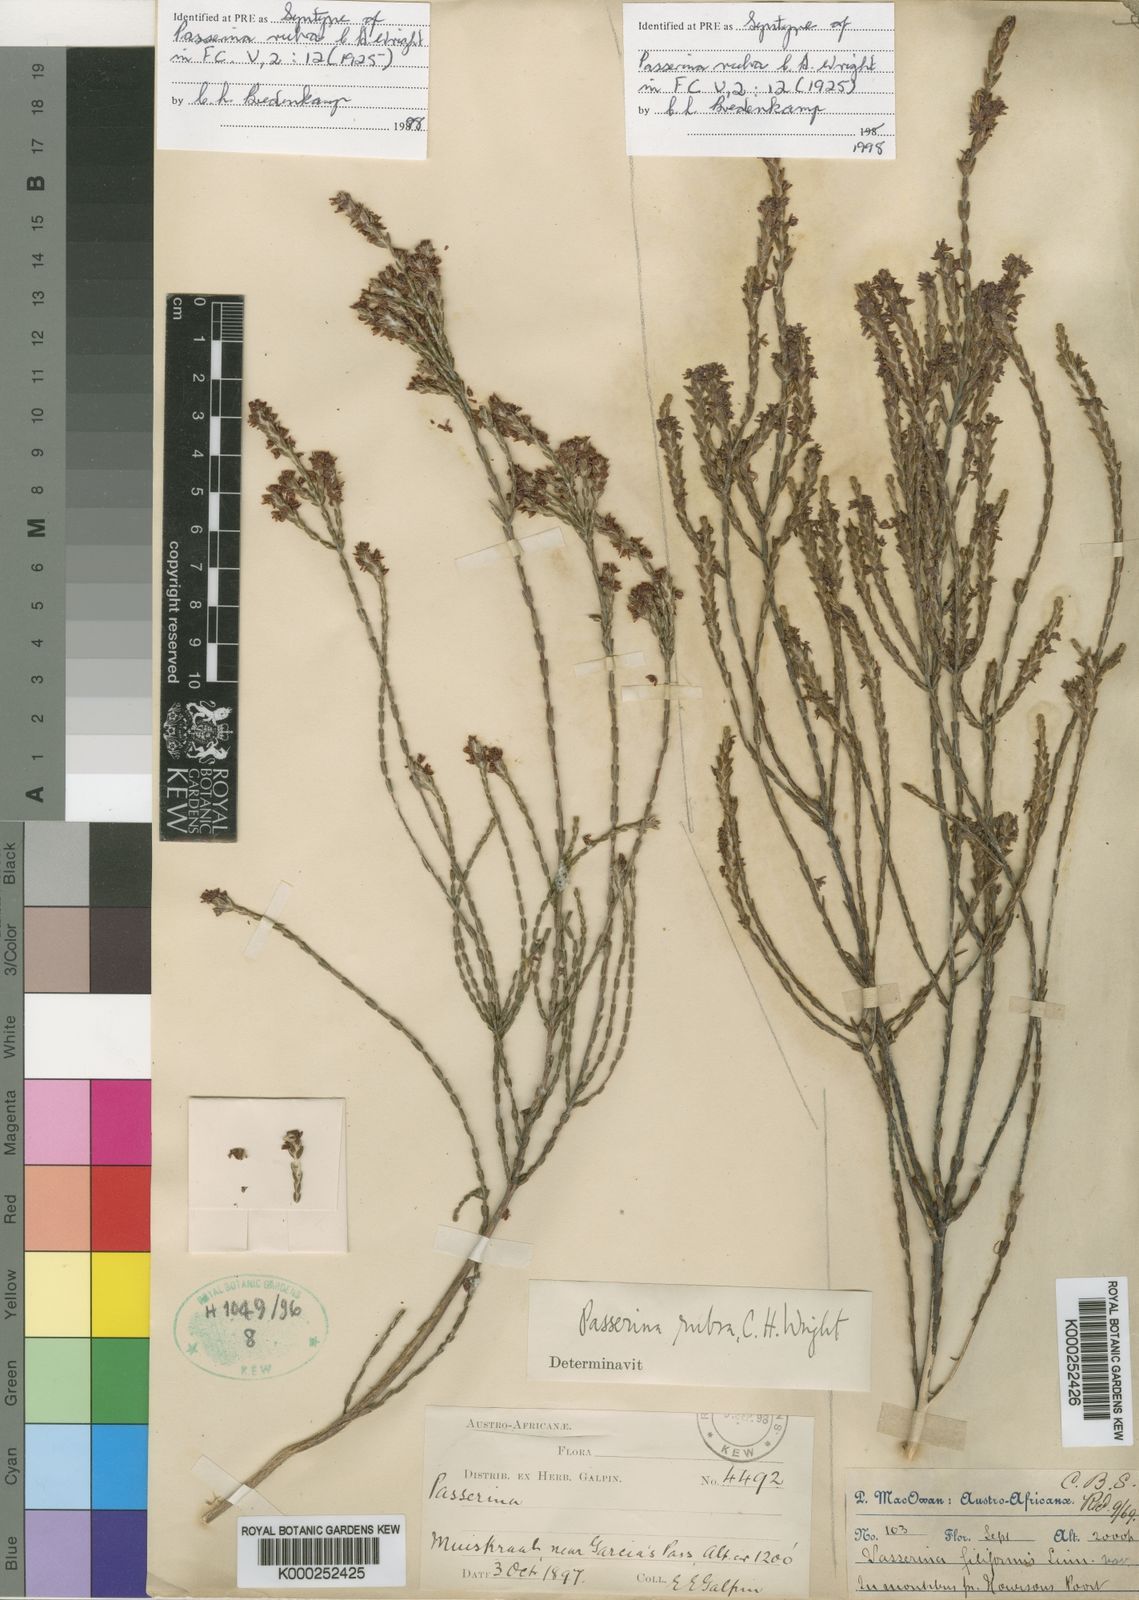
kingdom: Plantae
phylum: Tracheophyta
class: Magnoliopsida
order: Malvales
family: Thymelaeaceae
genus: Passerina
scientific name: Passerina rubra
